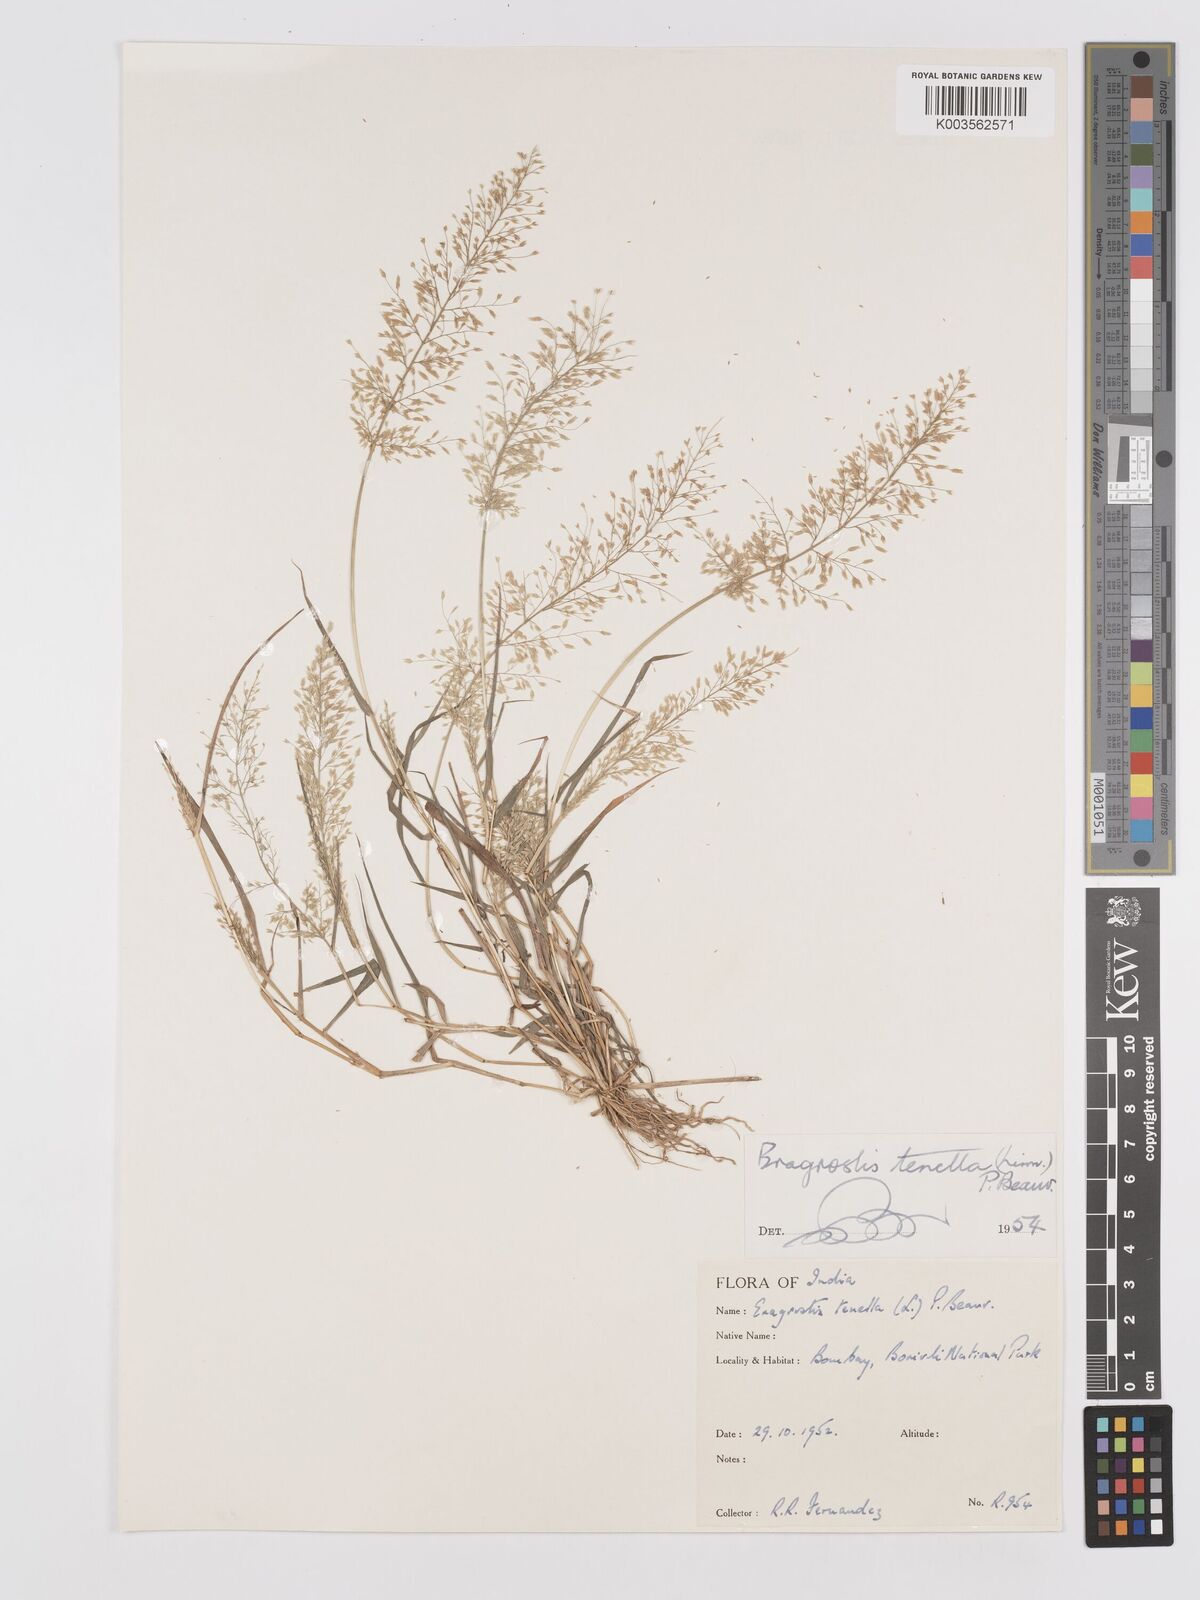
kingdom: Plantae
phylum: Tracheophyta
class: Liliopsida
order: Poales
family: Poaceae
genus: Eragrostis
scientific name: Eragrostis tenella
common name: Japanese lovegrass
